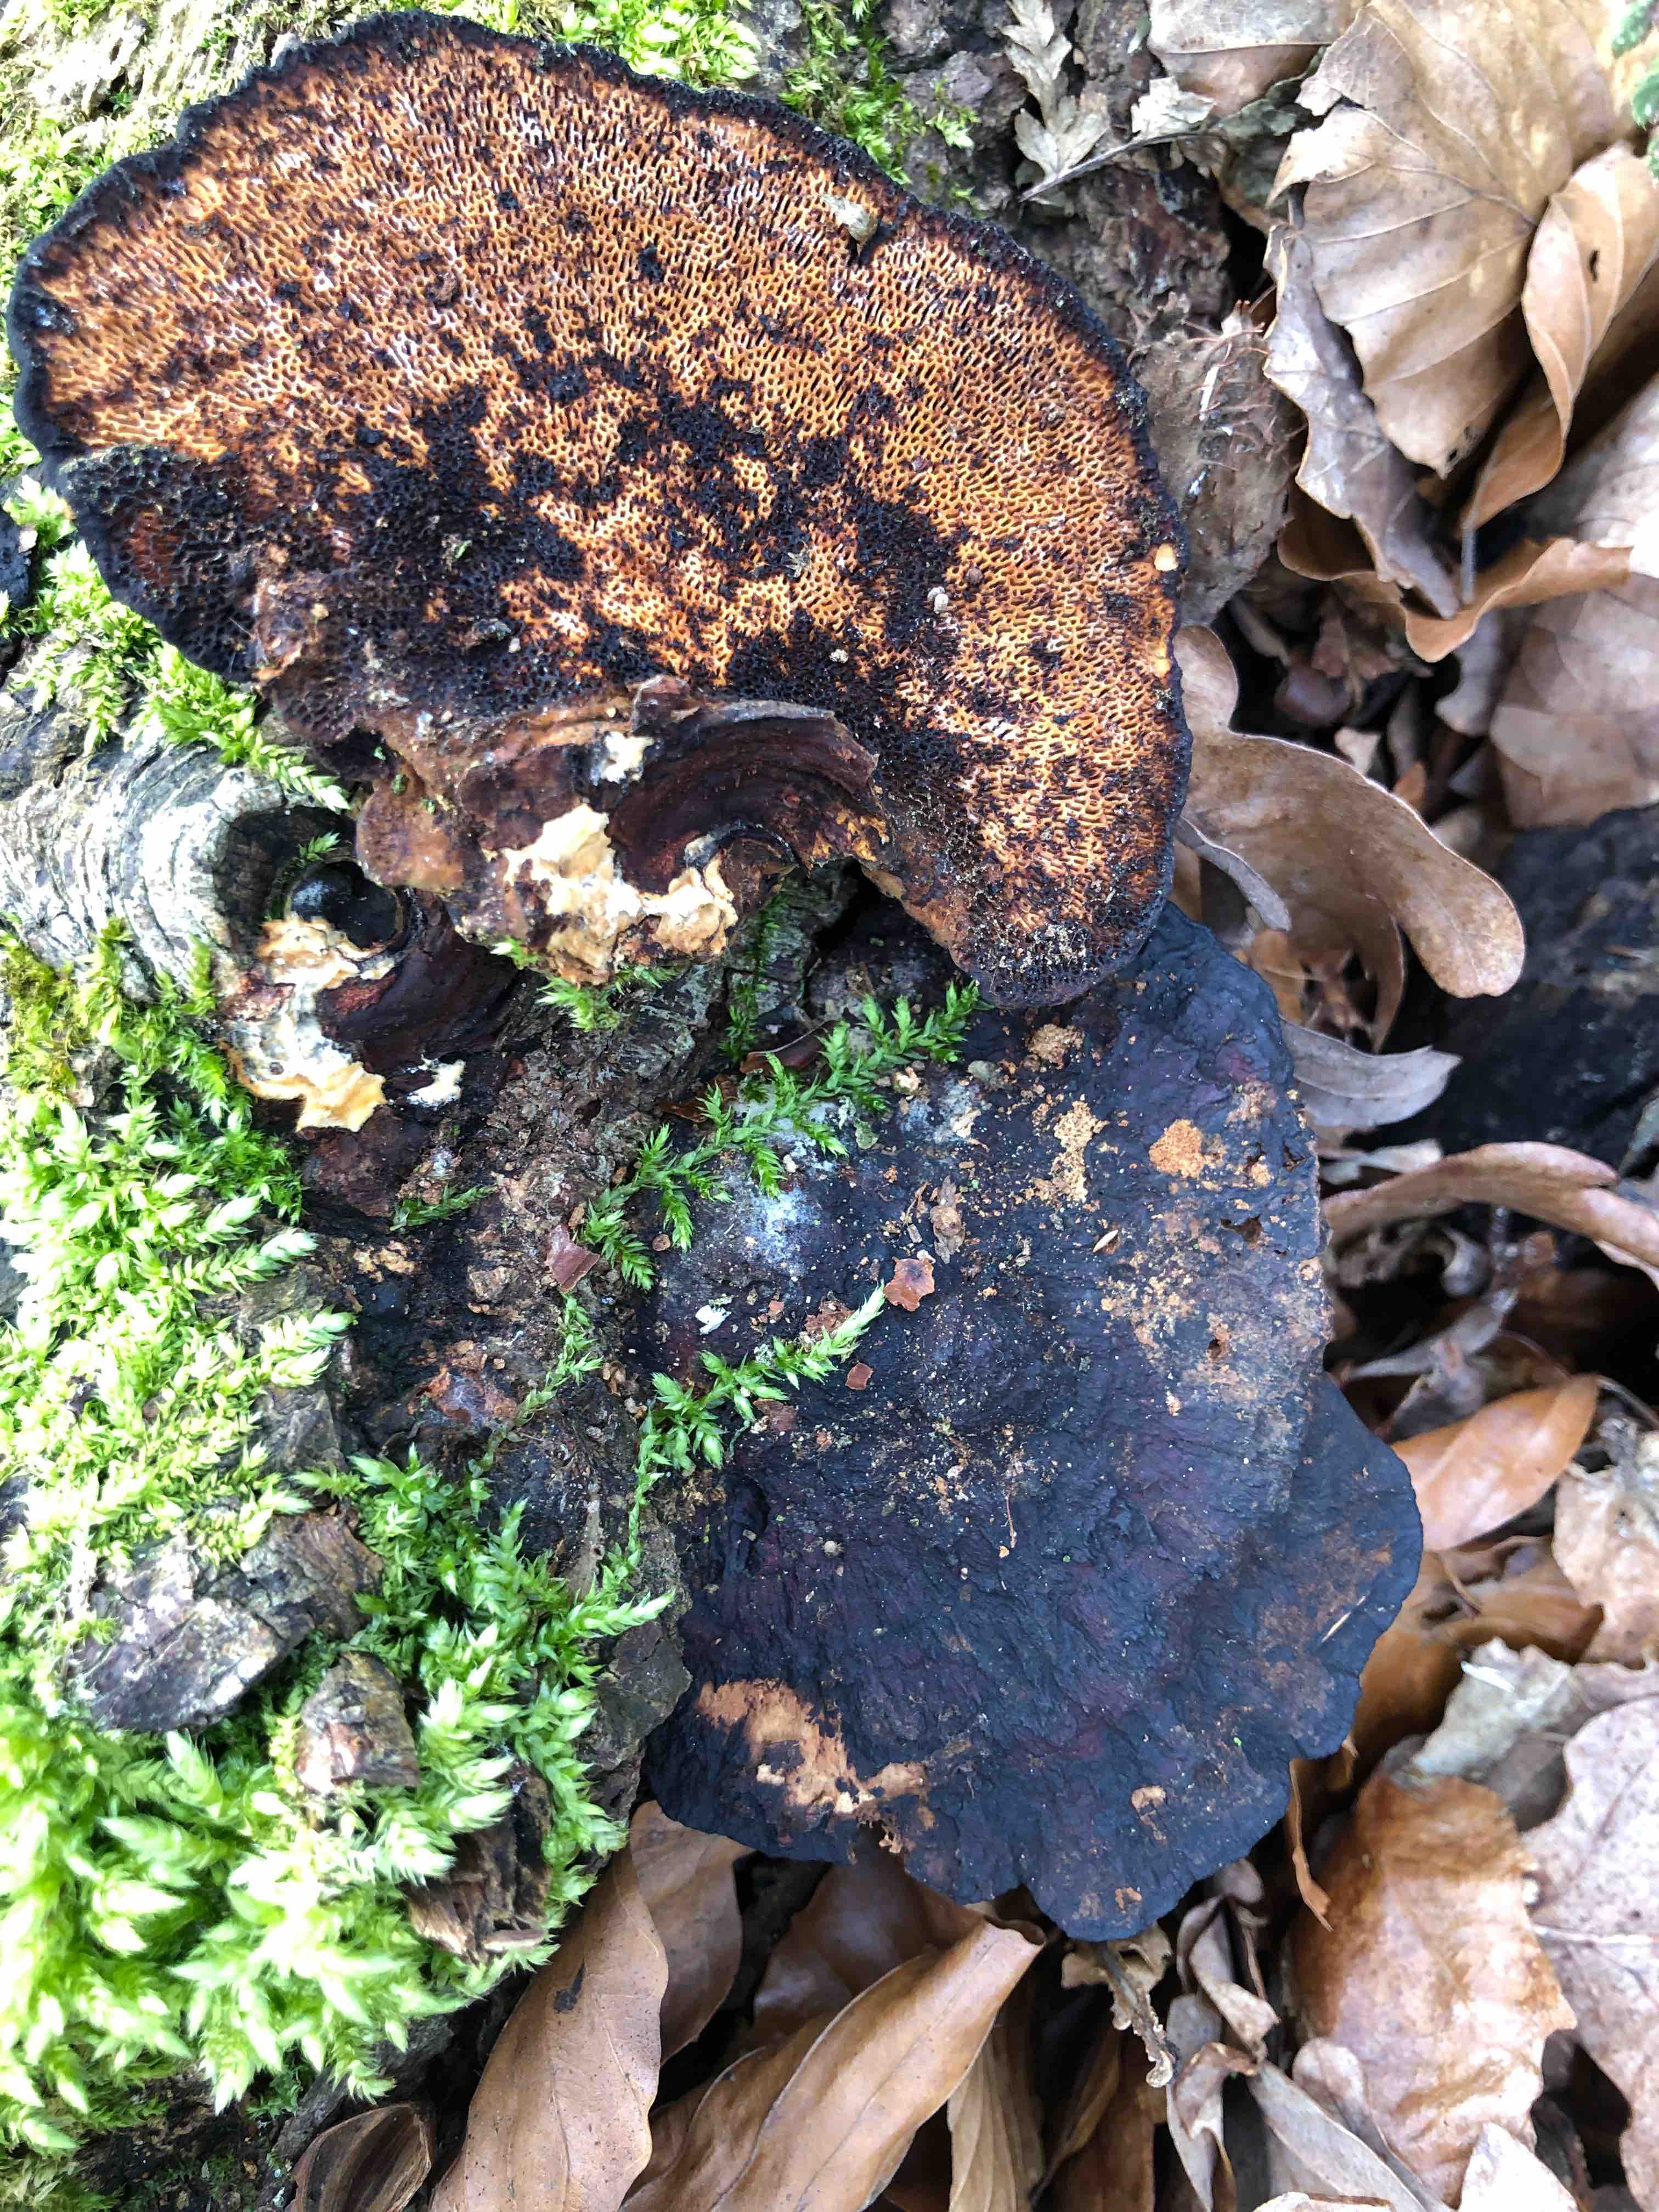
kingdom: Fungi
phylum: Basidiomycota
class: Agaricomycetes
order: Polyporales
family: Polyporaceae
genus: Daedaleopsis
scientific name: Daedaleopsis confragosa
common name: rødmende læderporesvamp
